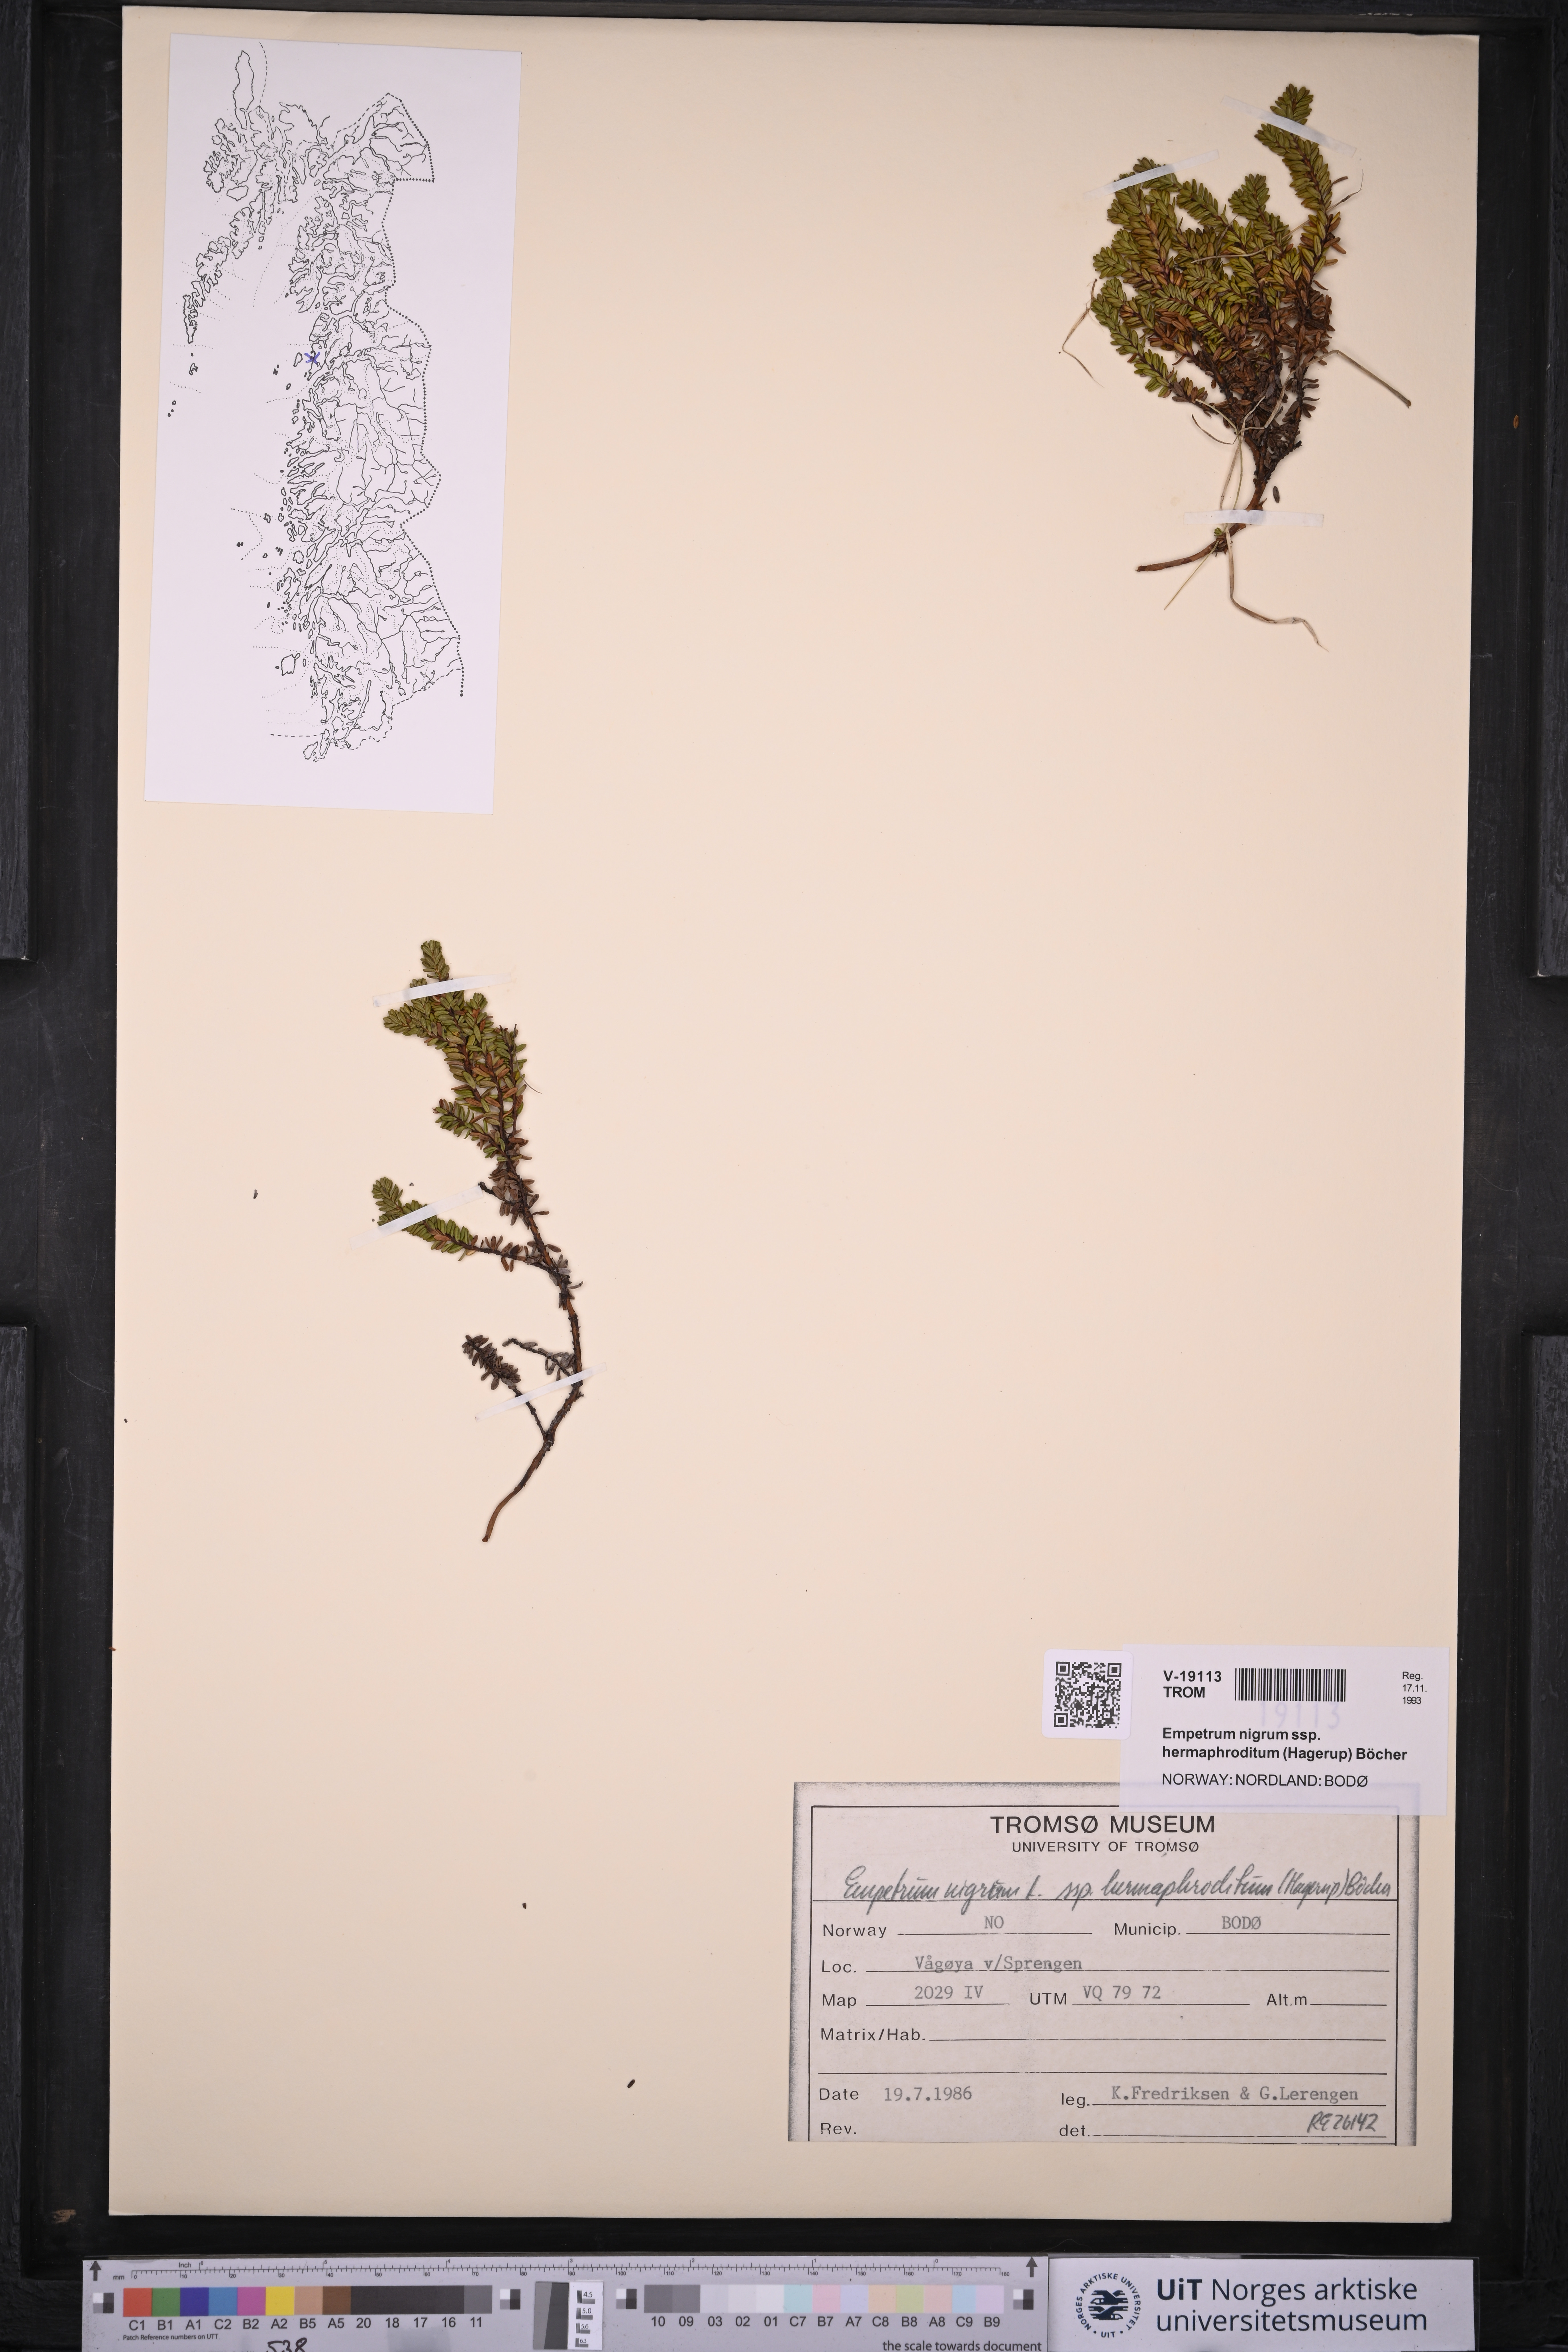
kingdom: Plantae
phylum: Tracheophyta
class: Magnoliopsida
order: Ericales
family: Ericaceae
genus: Empetrum
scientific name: Empetrum hermaphroditum
